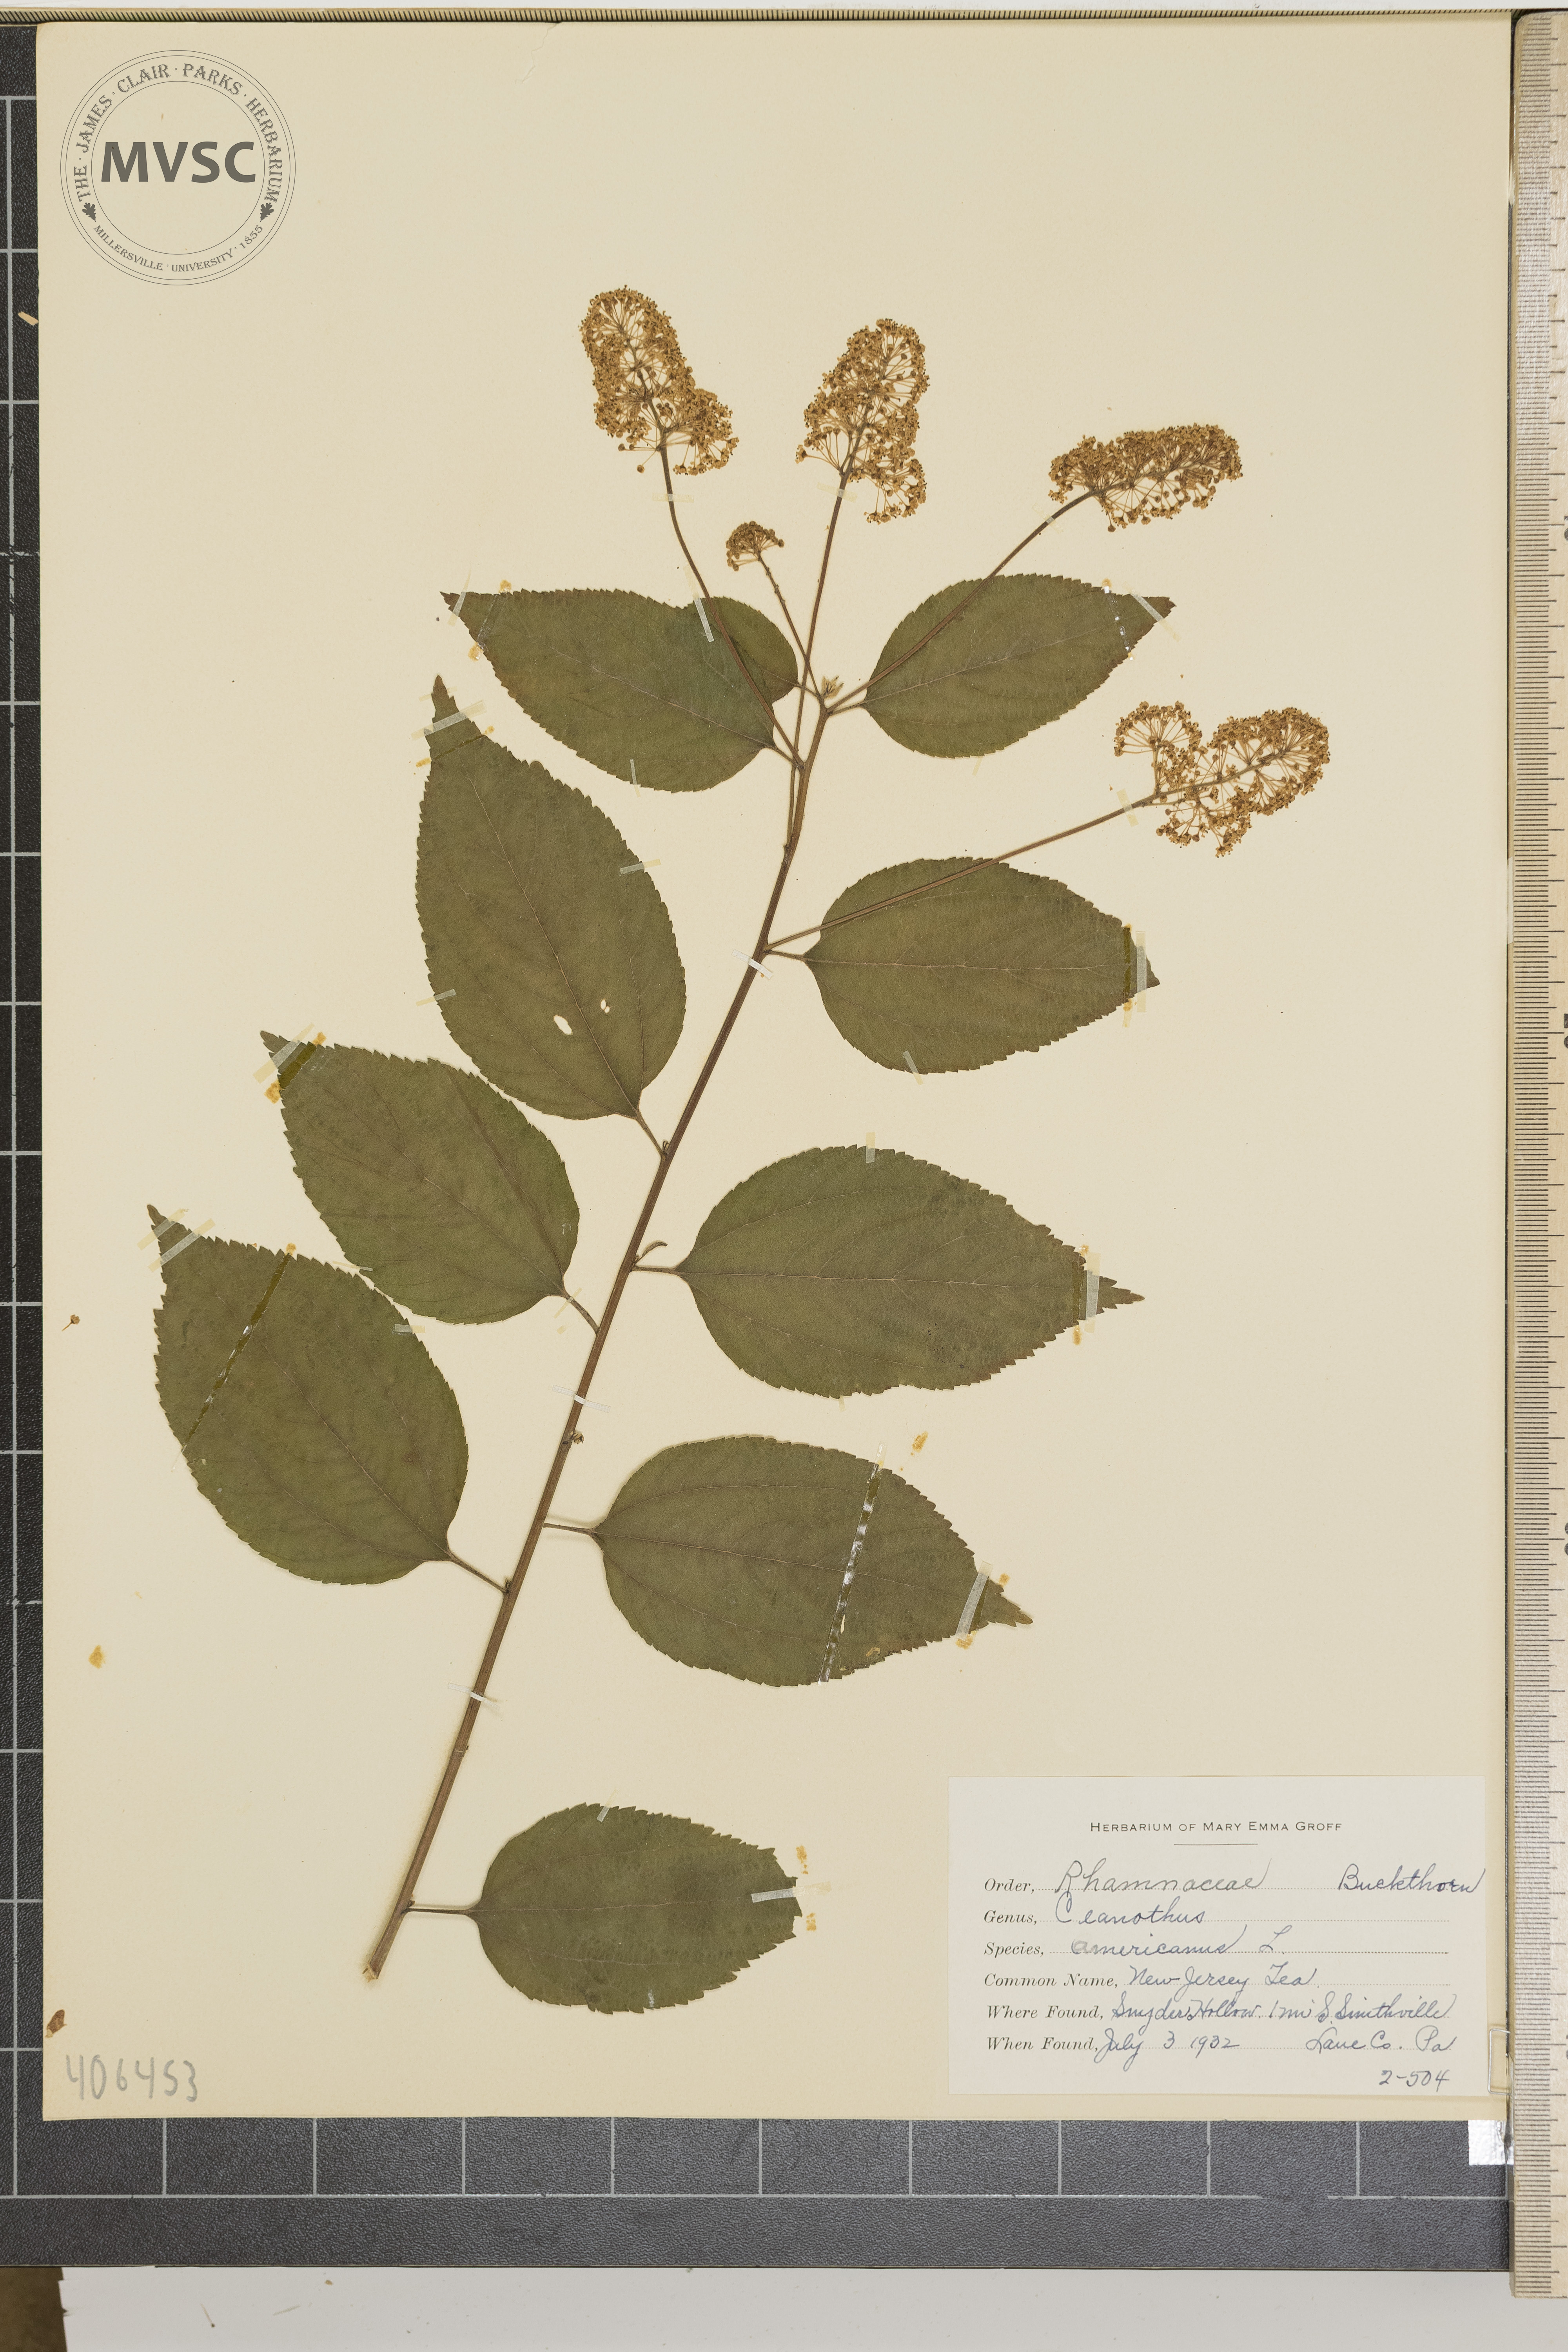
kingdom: Plantae
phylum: Tracheophyta
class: Magnoliopsida
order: Rosales
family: Rhamnaceae
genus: Ceanothus
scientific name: Ceanothus americanus
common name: New Jersey Tea
